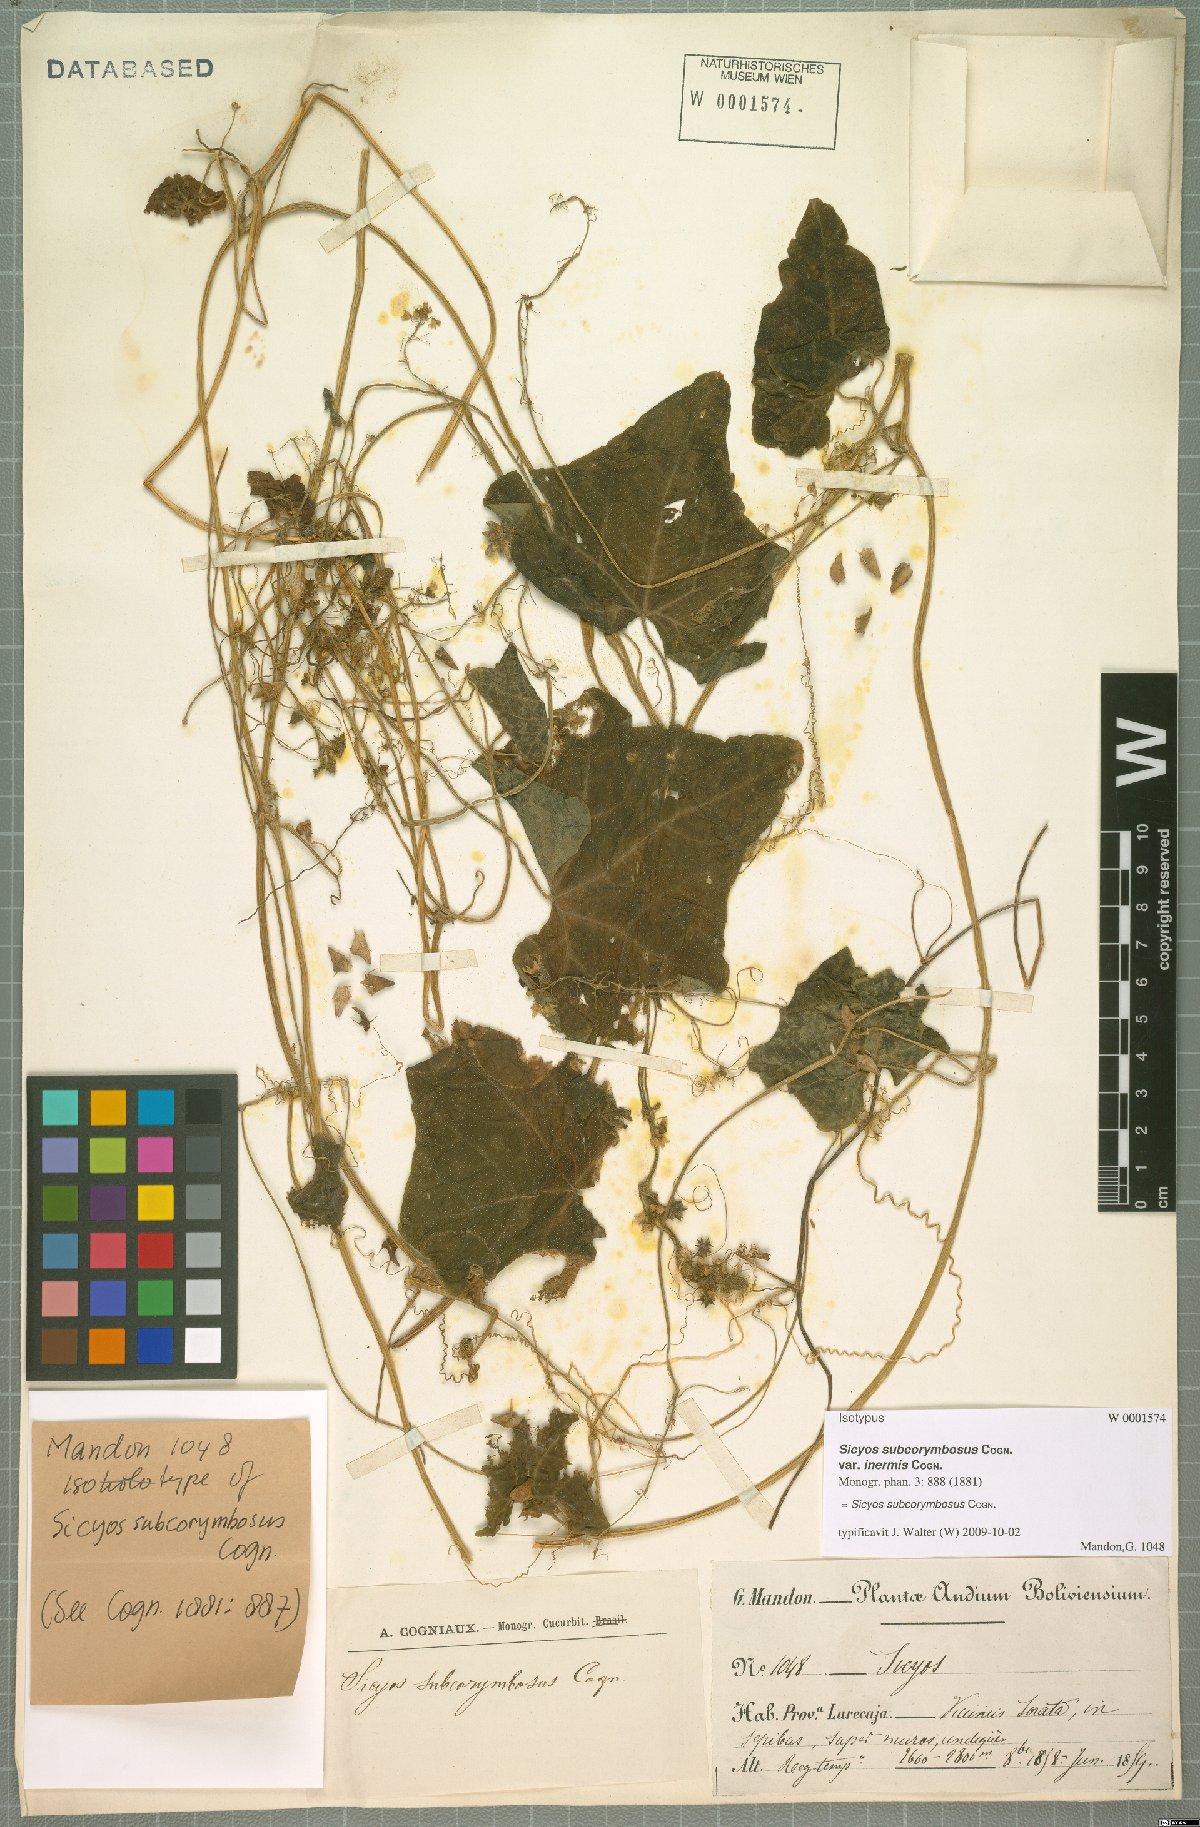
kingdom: Plantae
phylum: Tracheophyta
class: Magnoliopsida
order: Cucurbitales
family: Cucurbitaceae
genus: Sicyos
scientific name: Sicyos montanus
